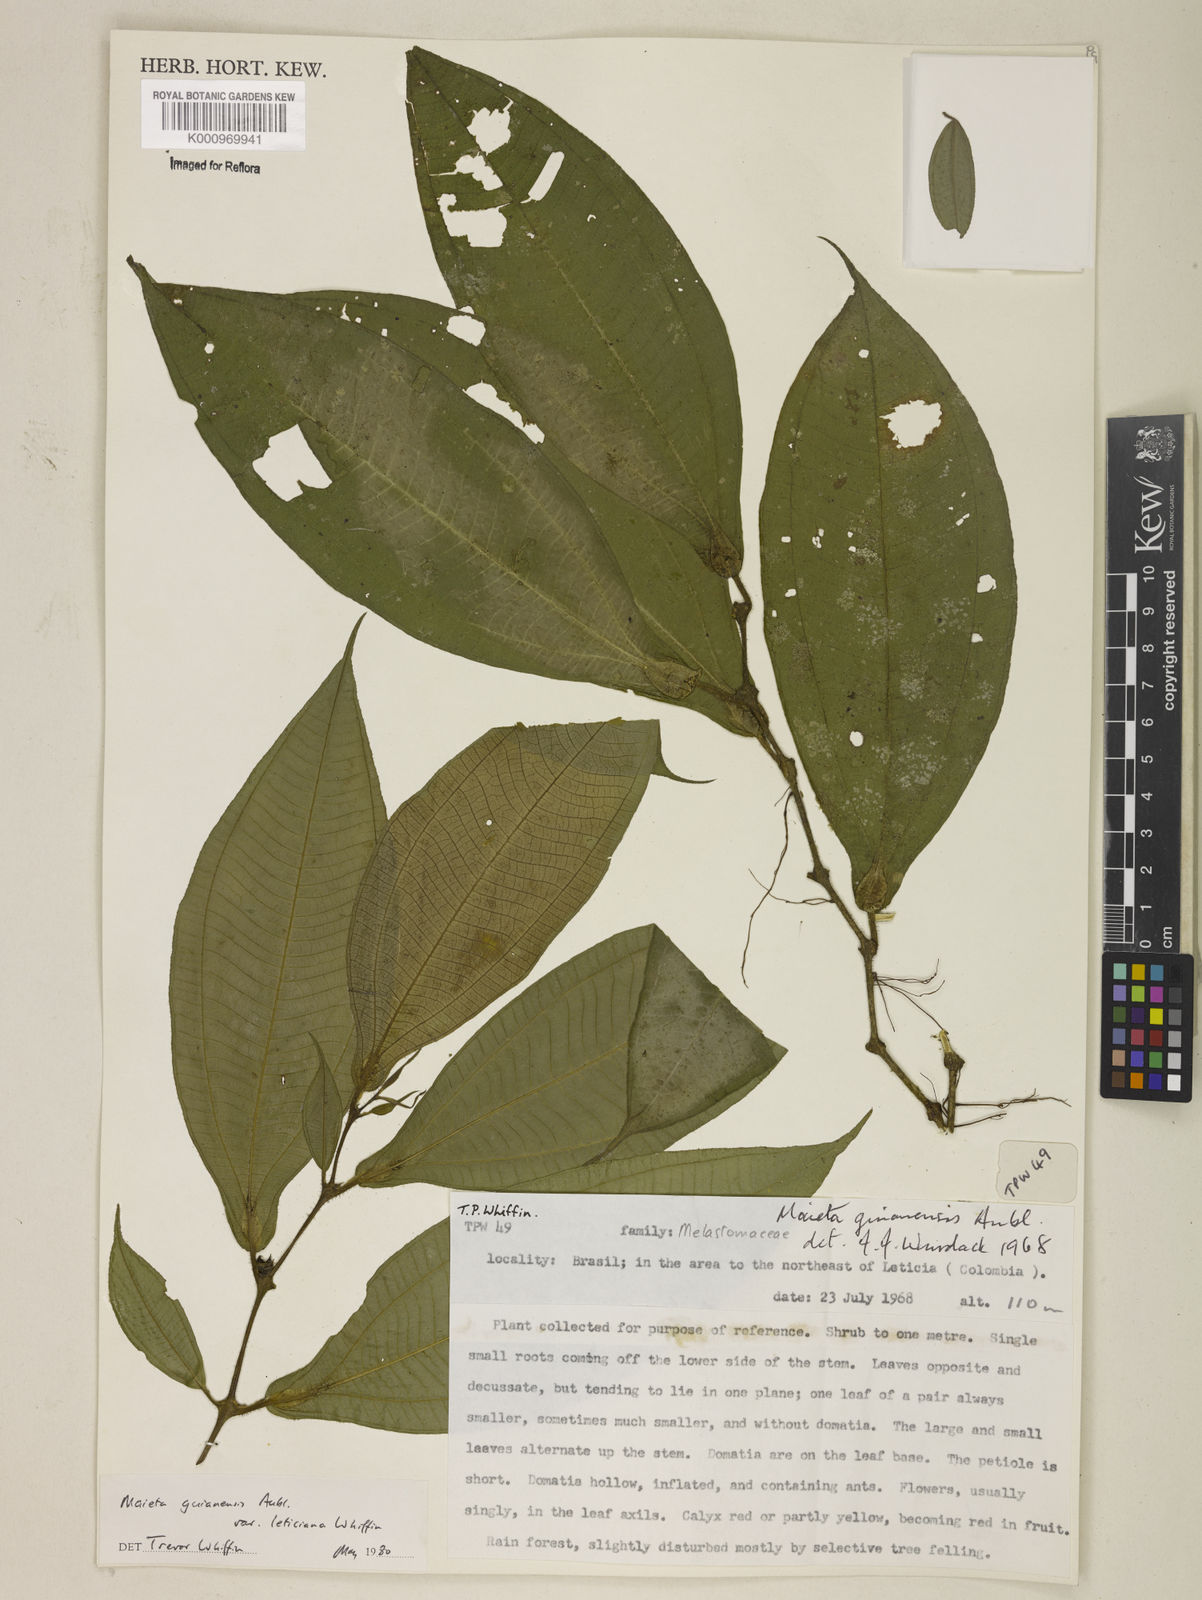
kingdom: Plantae
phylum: Tracheophyta
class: Magnoliopsida
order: Myrtales
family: Melastomataceae
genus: Miconia
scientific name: Miconia mayeta
